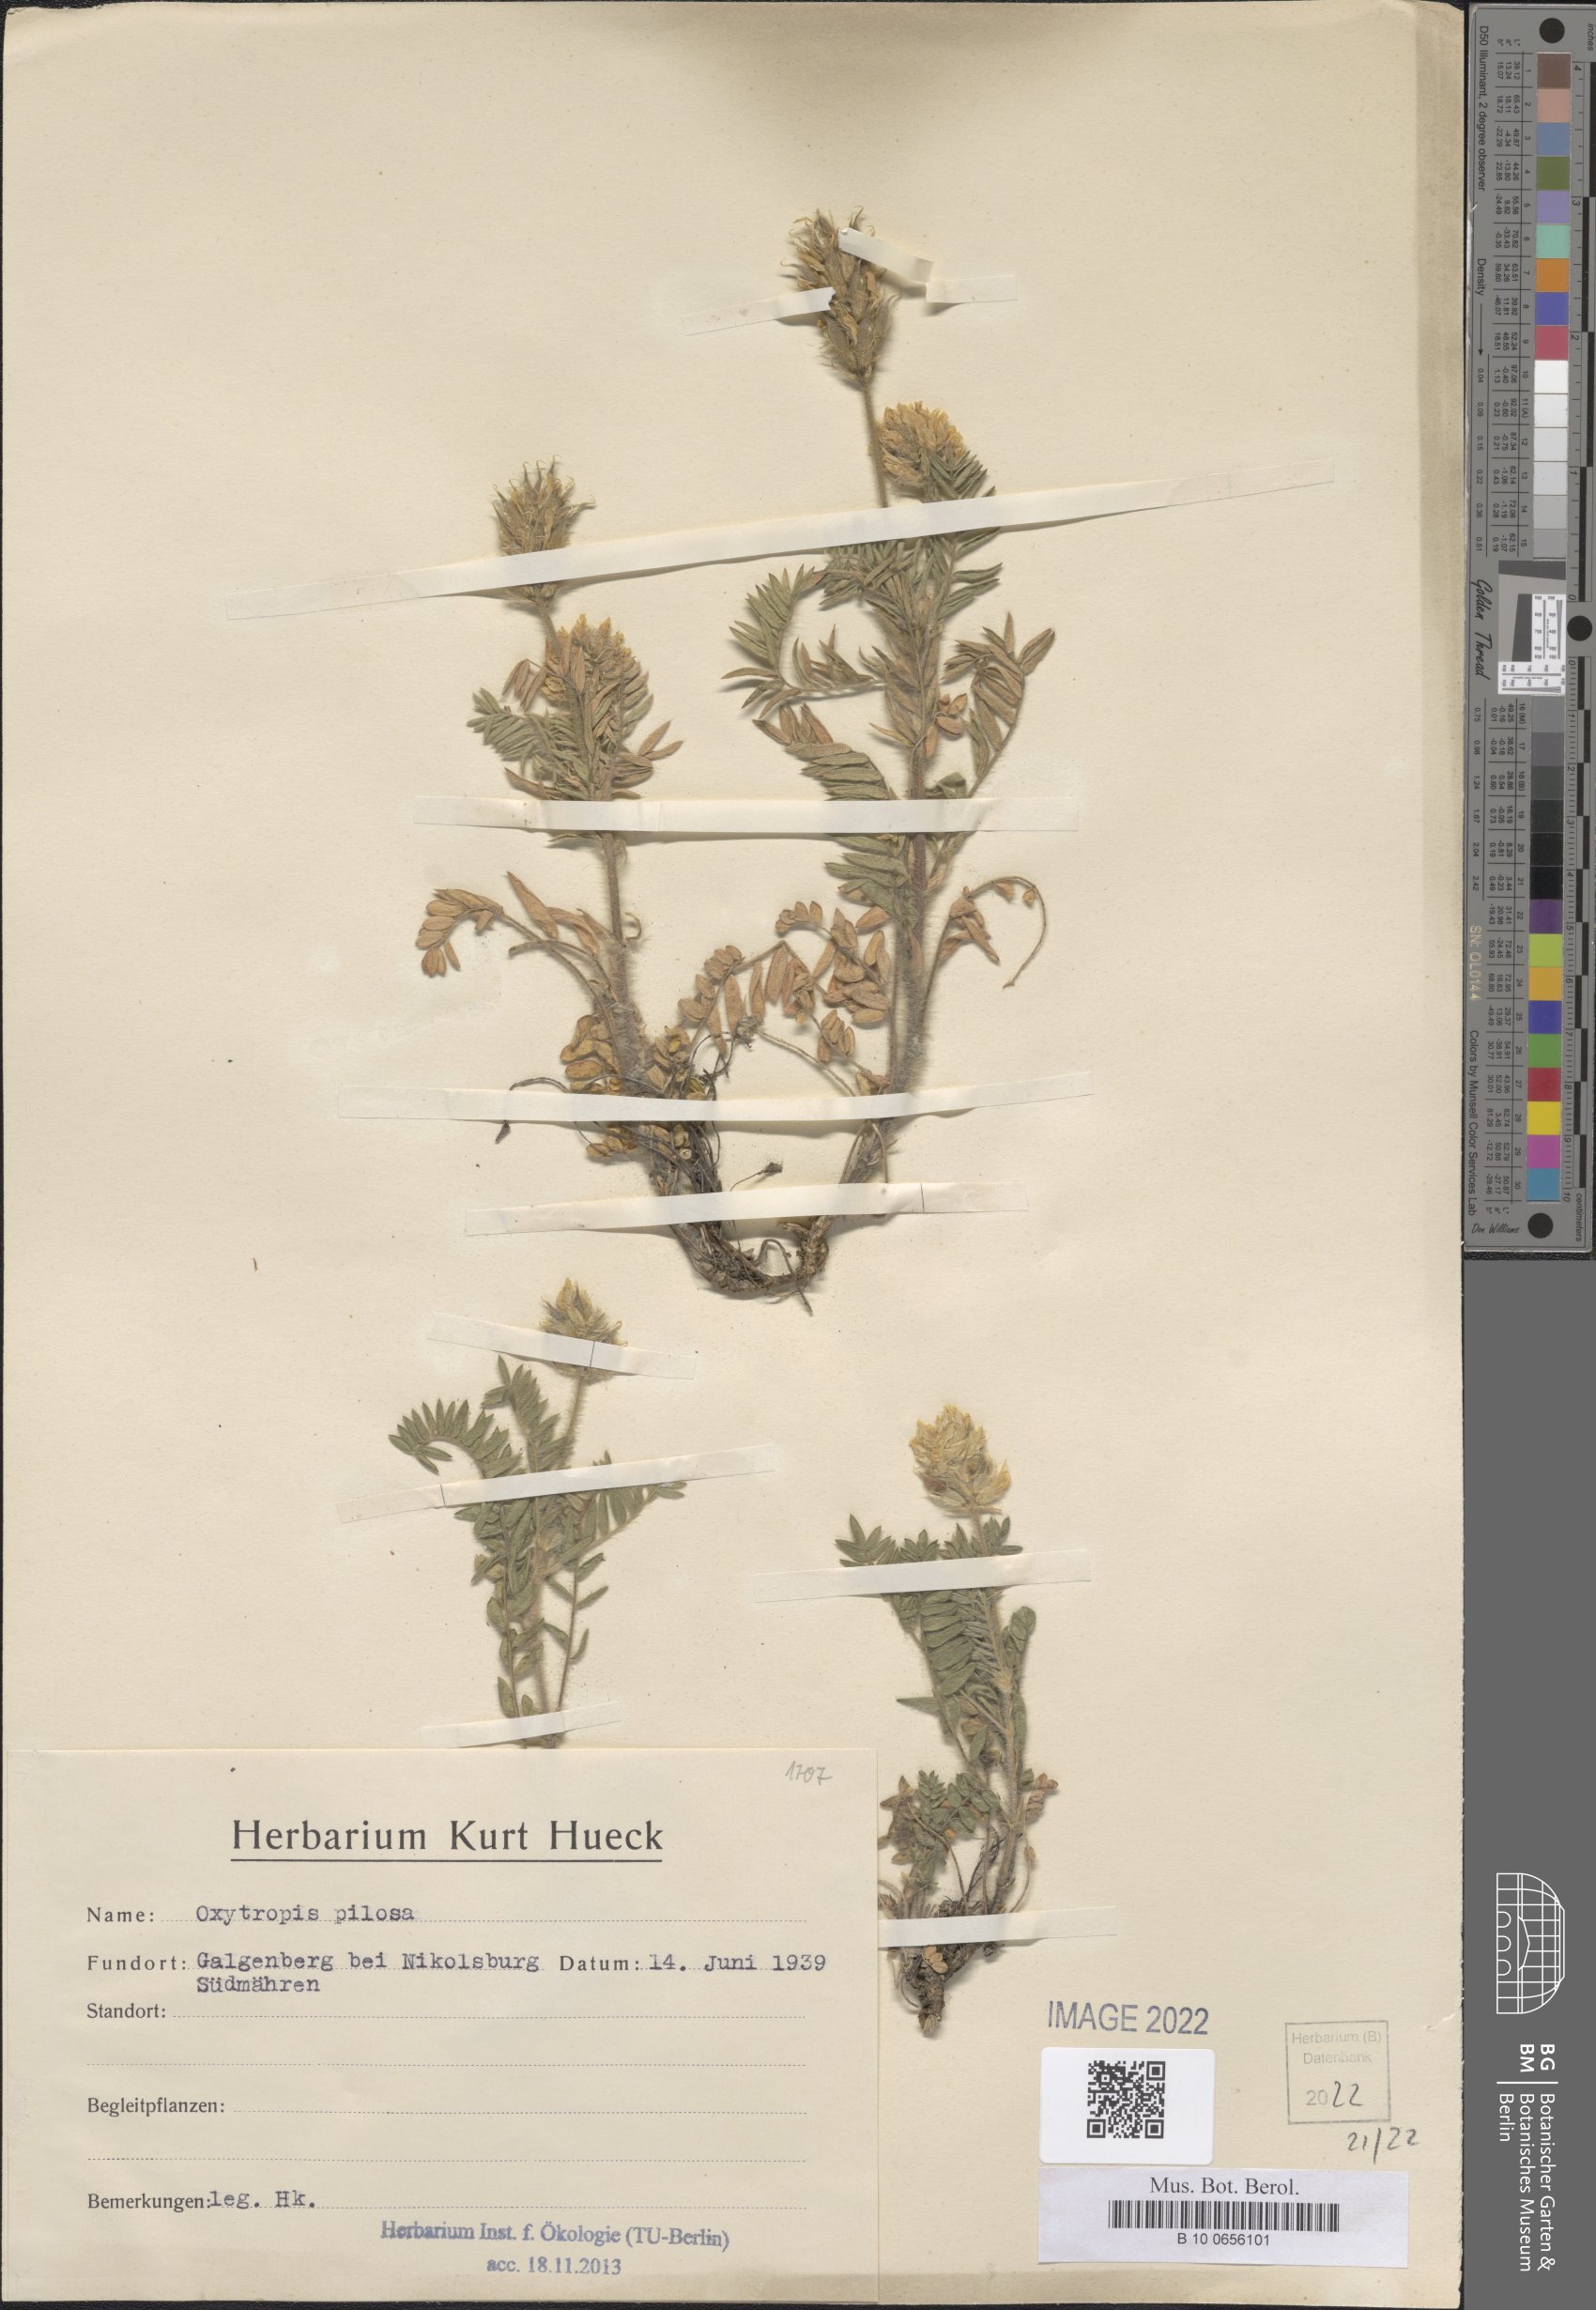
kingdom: Plantae
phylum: Tracheophyta
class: Magnoliopsida
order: Fabales
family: Fabaceae
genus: Oxytropis
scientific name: Oxytropis pilosa
